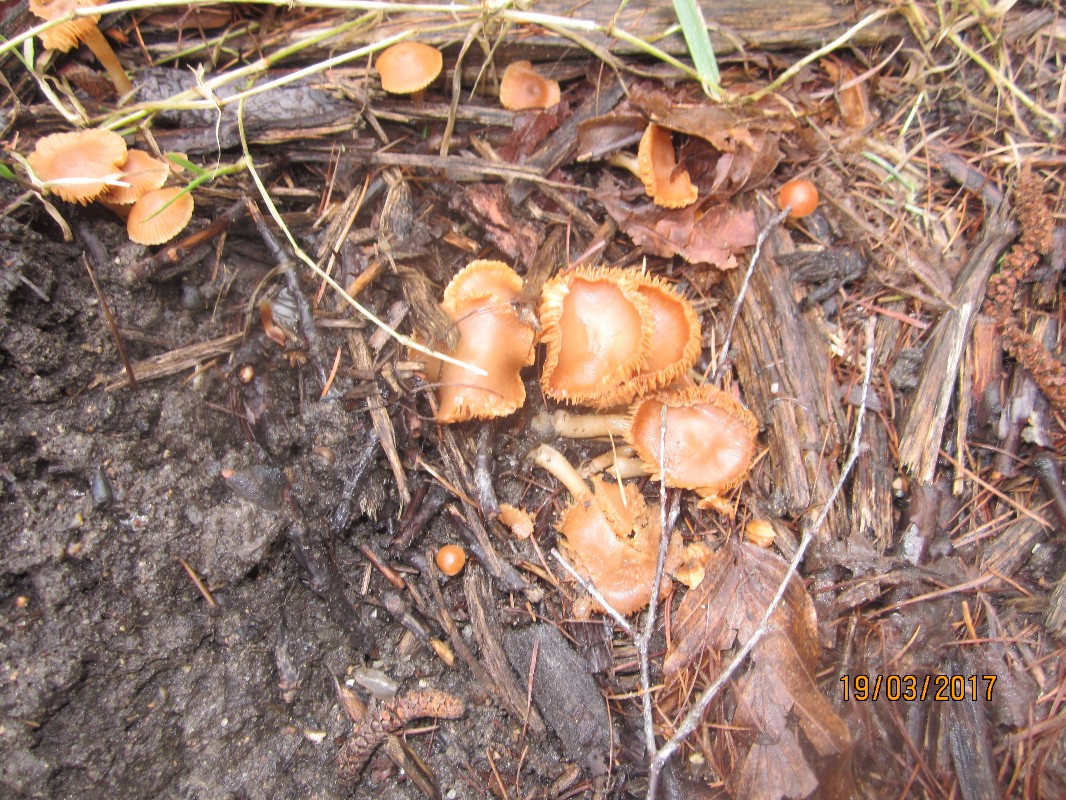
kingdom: Fungi
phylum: Basidiomycota
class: Agaricomycetes
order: Agaricales
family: Tubariaceae
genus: Tubaria
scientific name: Tubaria furfuracea
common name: kliddet fnughat
